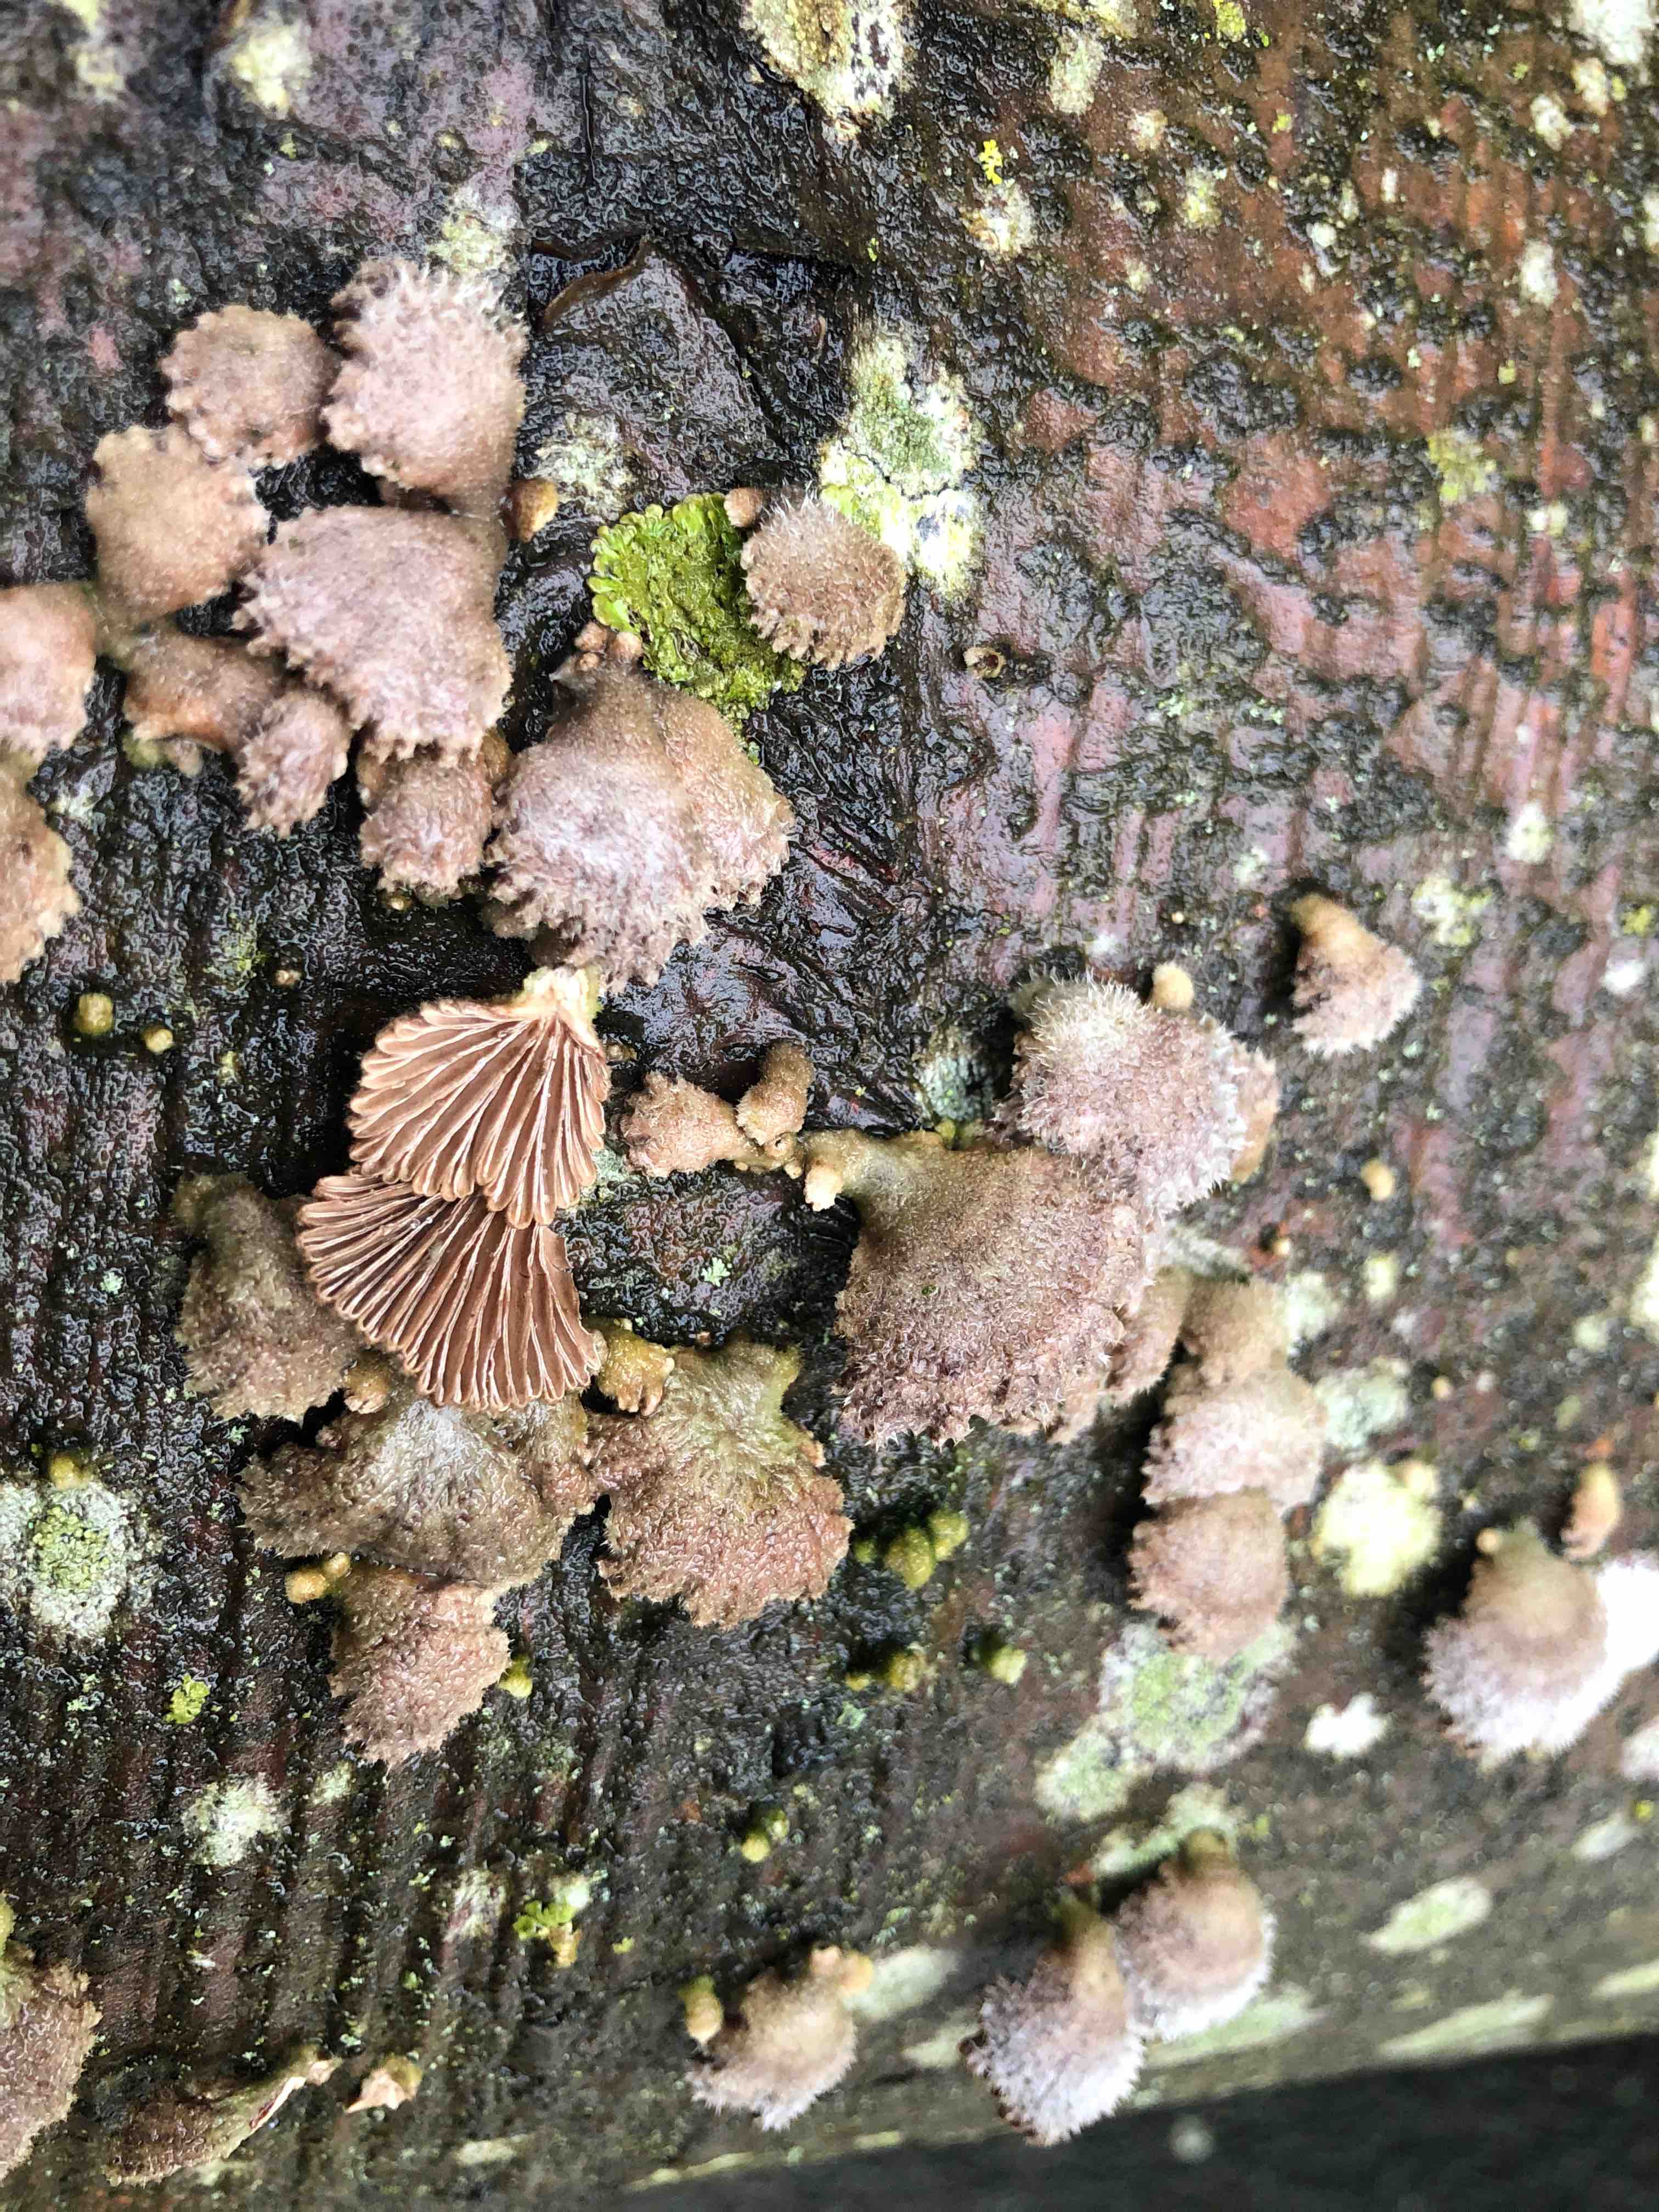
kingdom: Fungi
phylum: Basidiomycota
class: Agaricomycetes
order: Agaricales
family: Schizophyllaceae
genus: Schizophyllum
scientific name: Schizophyllum commune
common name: kløvblad
